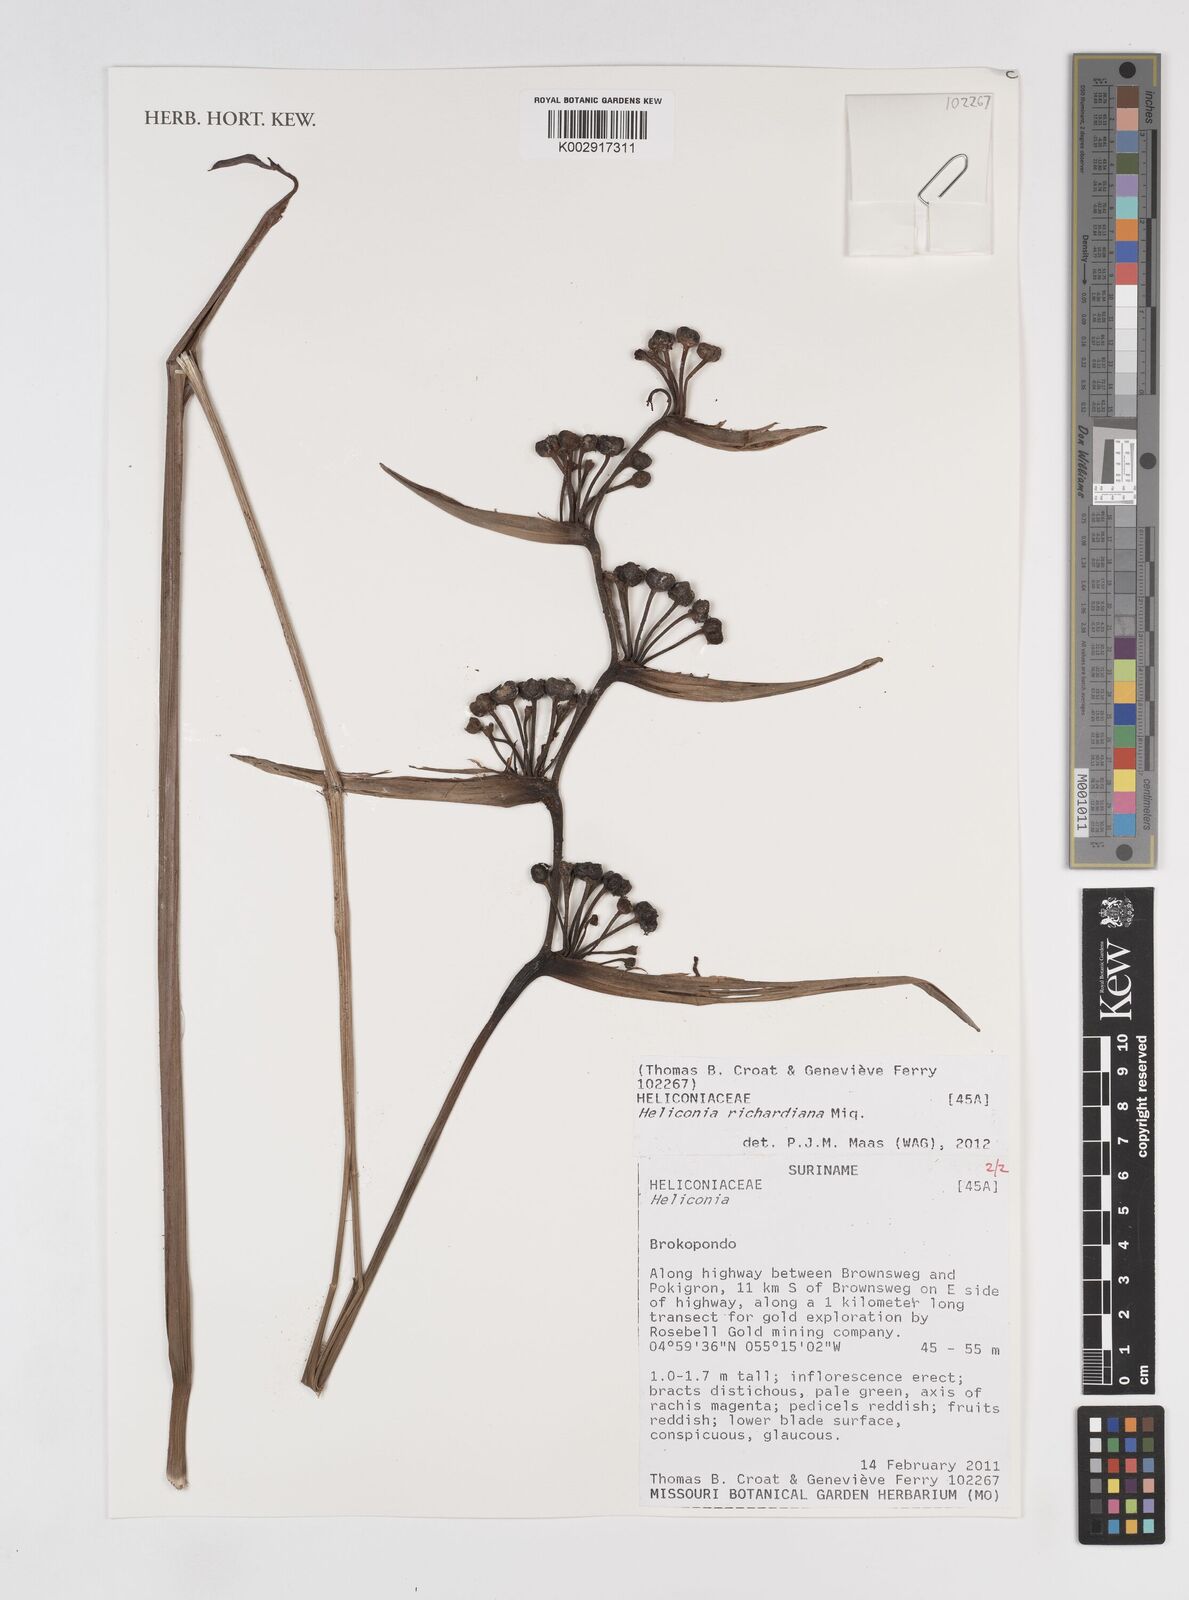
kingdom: Plantae
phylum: Tracheophyta
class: Liliopsida
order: Zingiberales
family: Heliconiaceae
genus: Heliconia
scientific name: Heliconia richardiana
